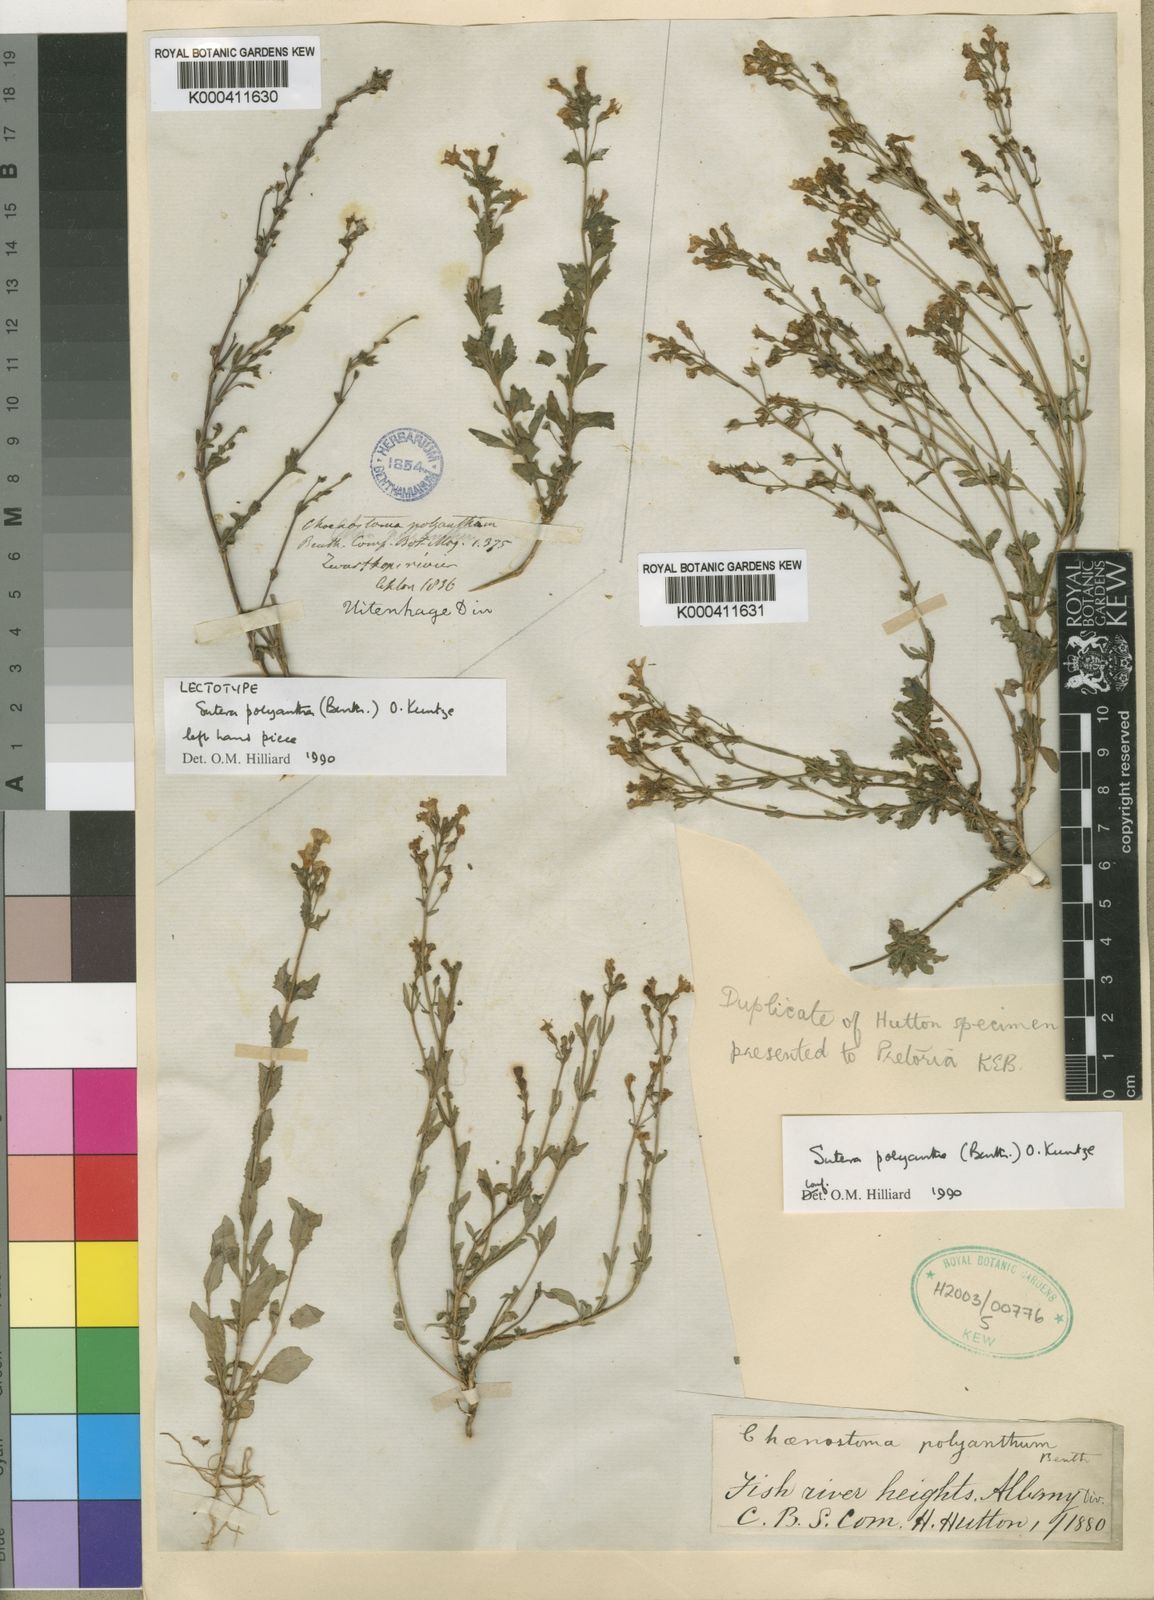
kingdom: Plantae
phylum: Tracheophyta
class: Magnoliopsida
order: Lamiales
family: Scrophulariaceae
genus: Chaenostoma
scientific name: Chaenostoma polyanthum
